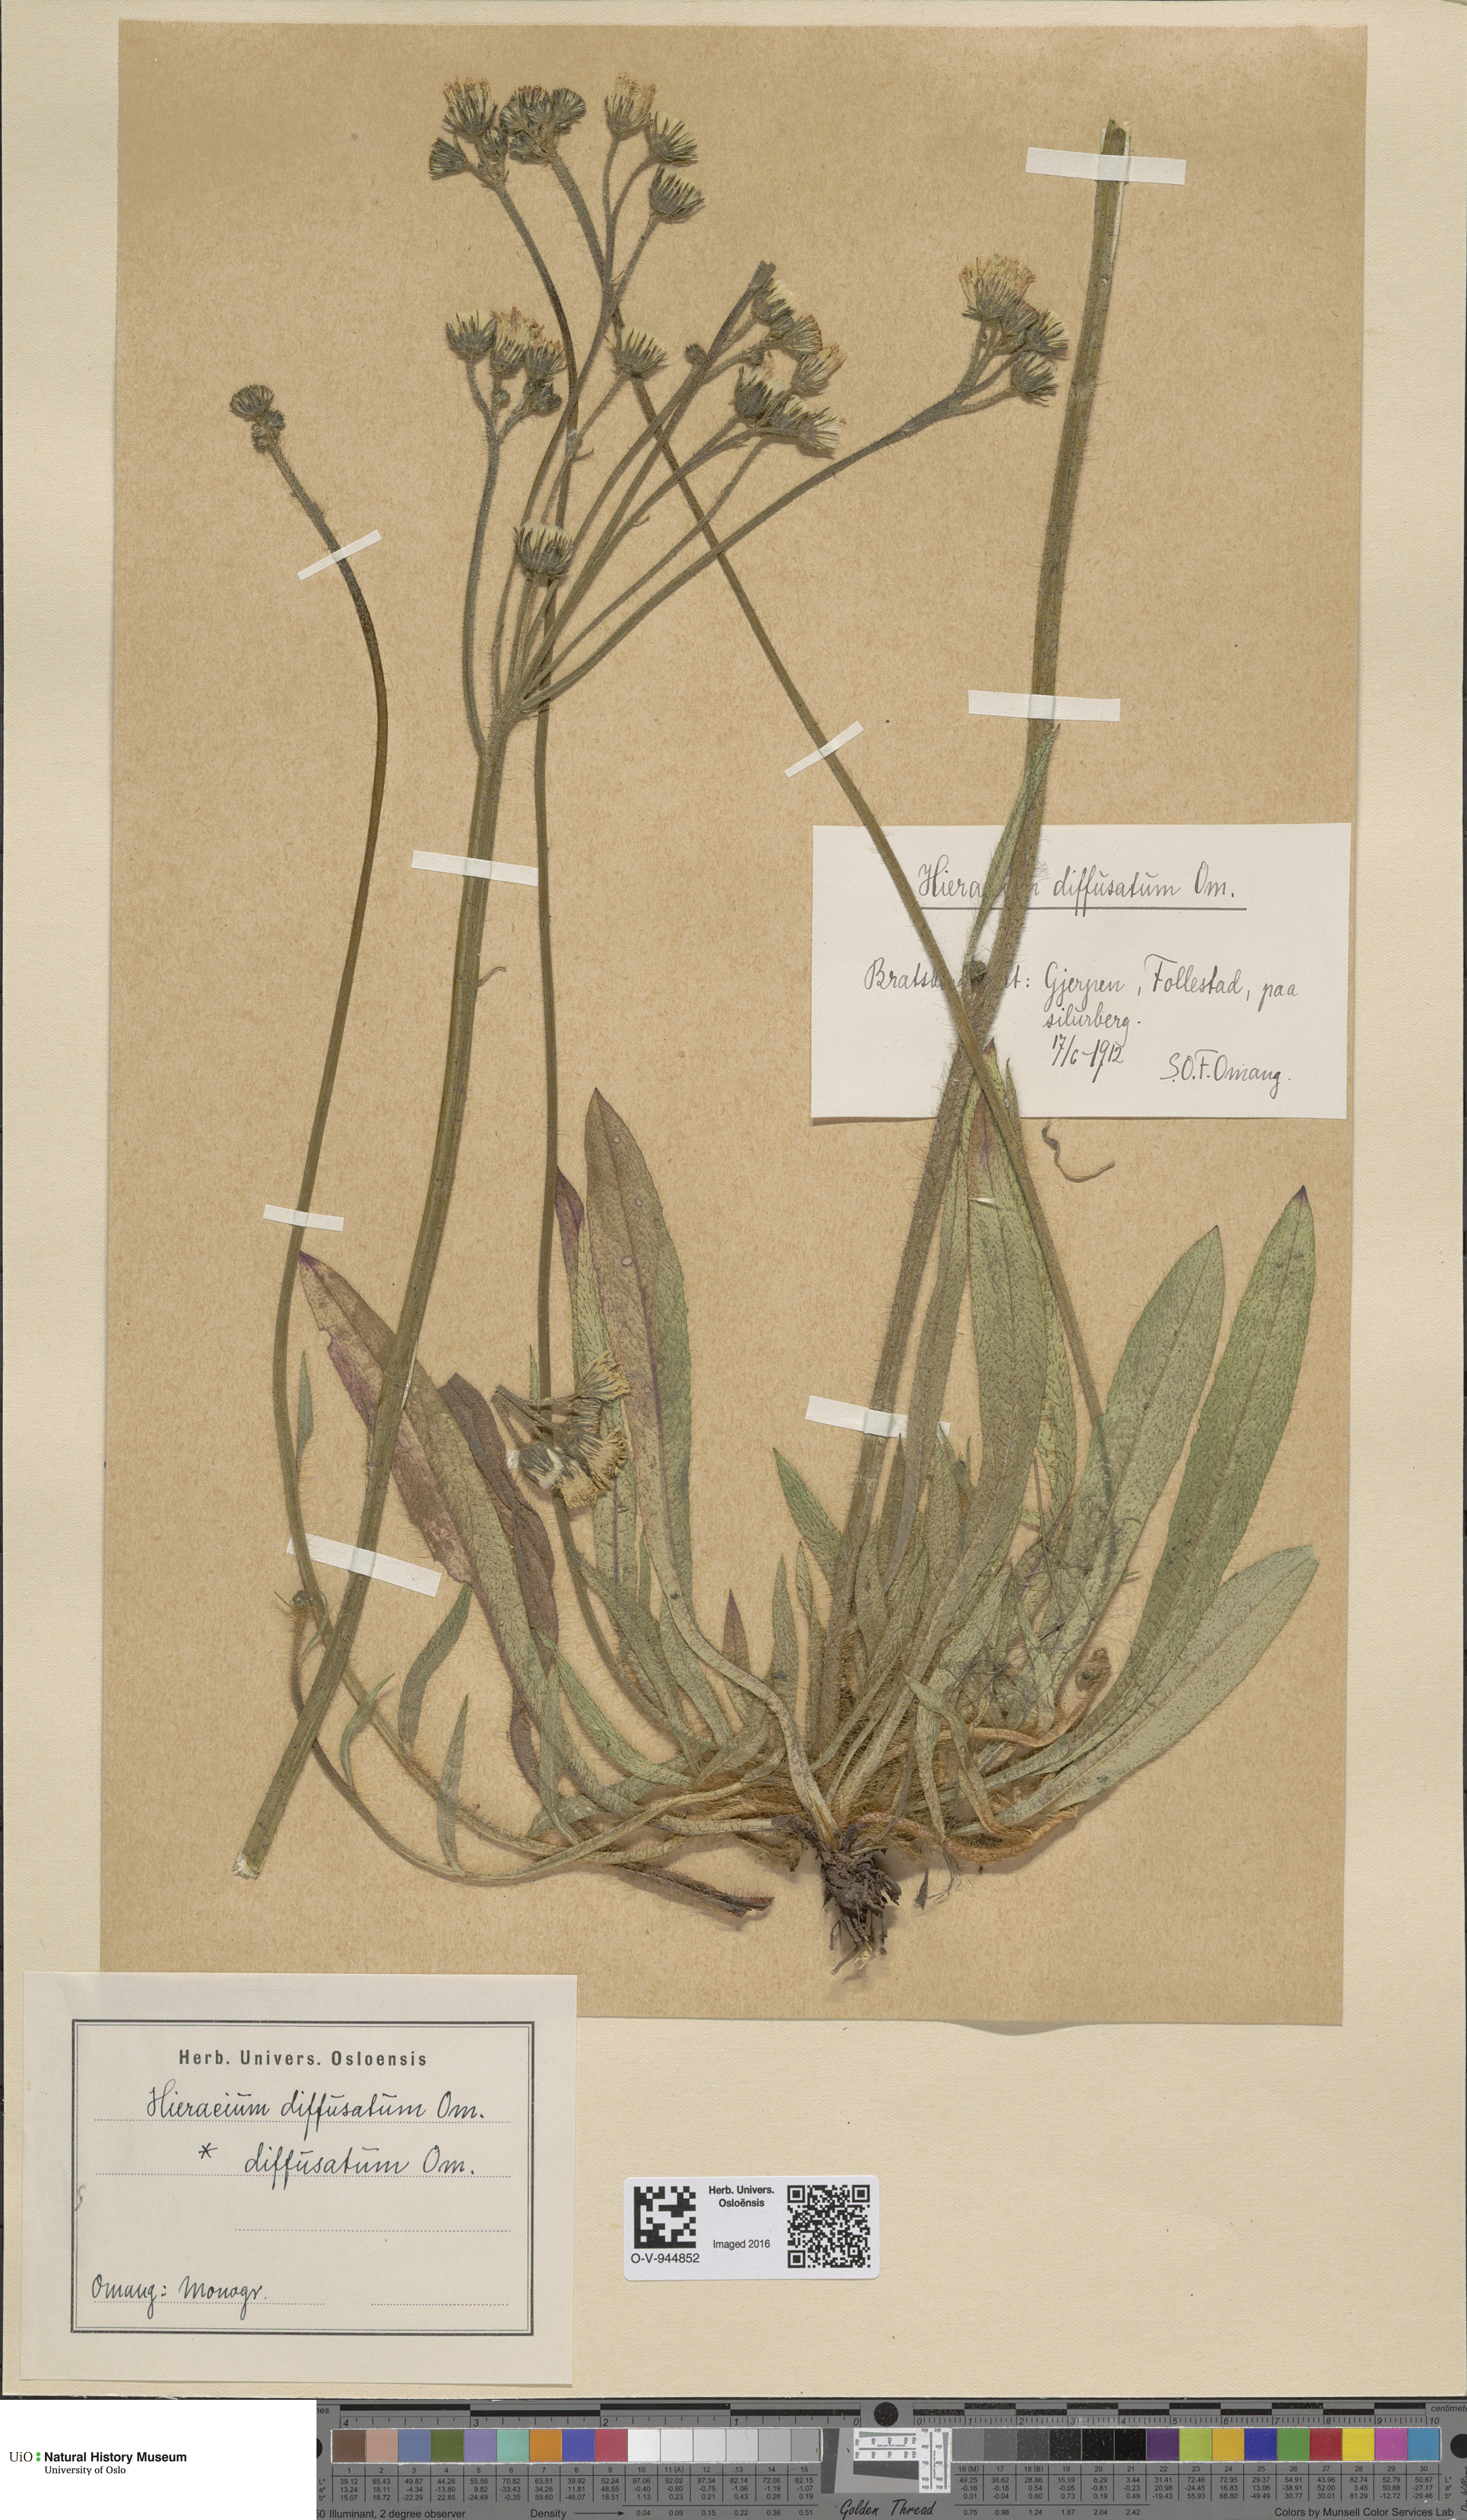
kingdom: Plantae
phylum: Tracheophyta
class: Magnoliopsida
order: Asterales
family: Asteraceae
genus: Pilosella
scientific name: Pilosella dubia
